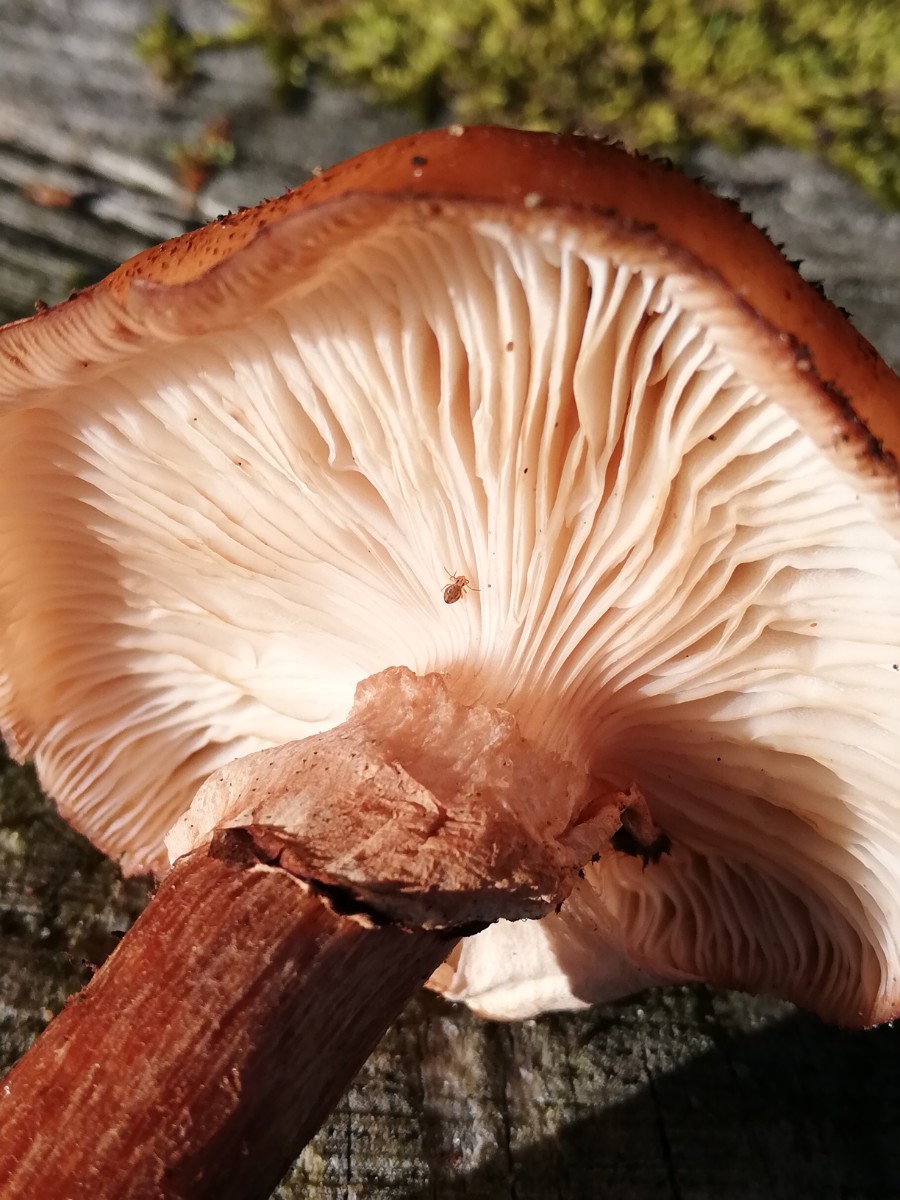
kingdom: Fungi
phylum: Basidiomycota
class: Agaricomycetes
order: Agaricales
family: Physalacriaceae
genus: Armillaria
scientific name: Armillaria lutea
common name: køllestokket honningsvamp
